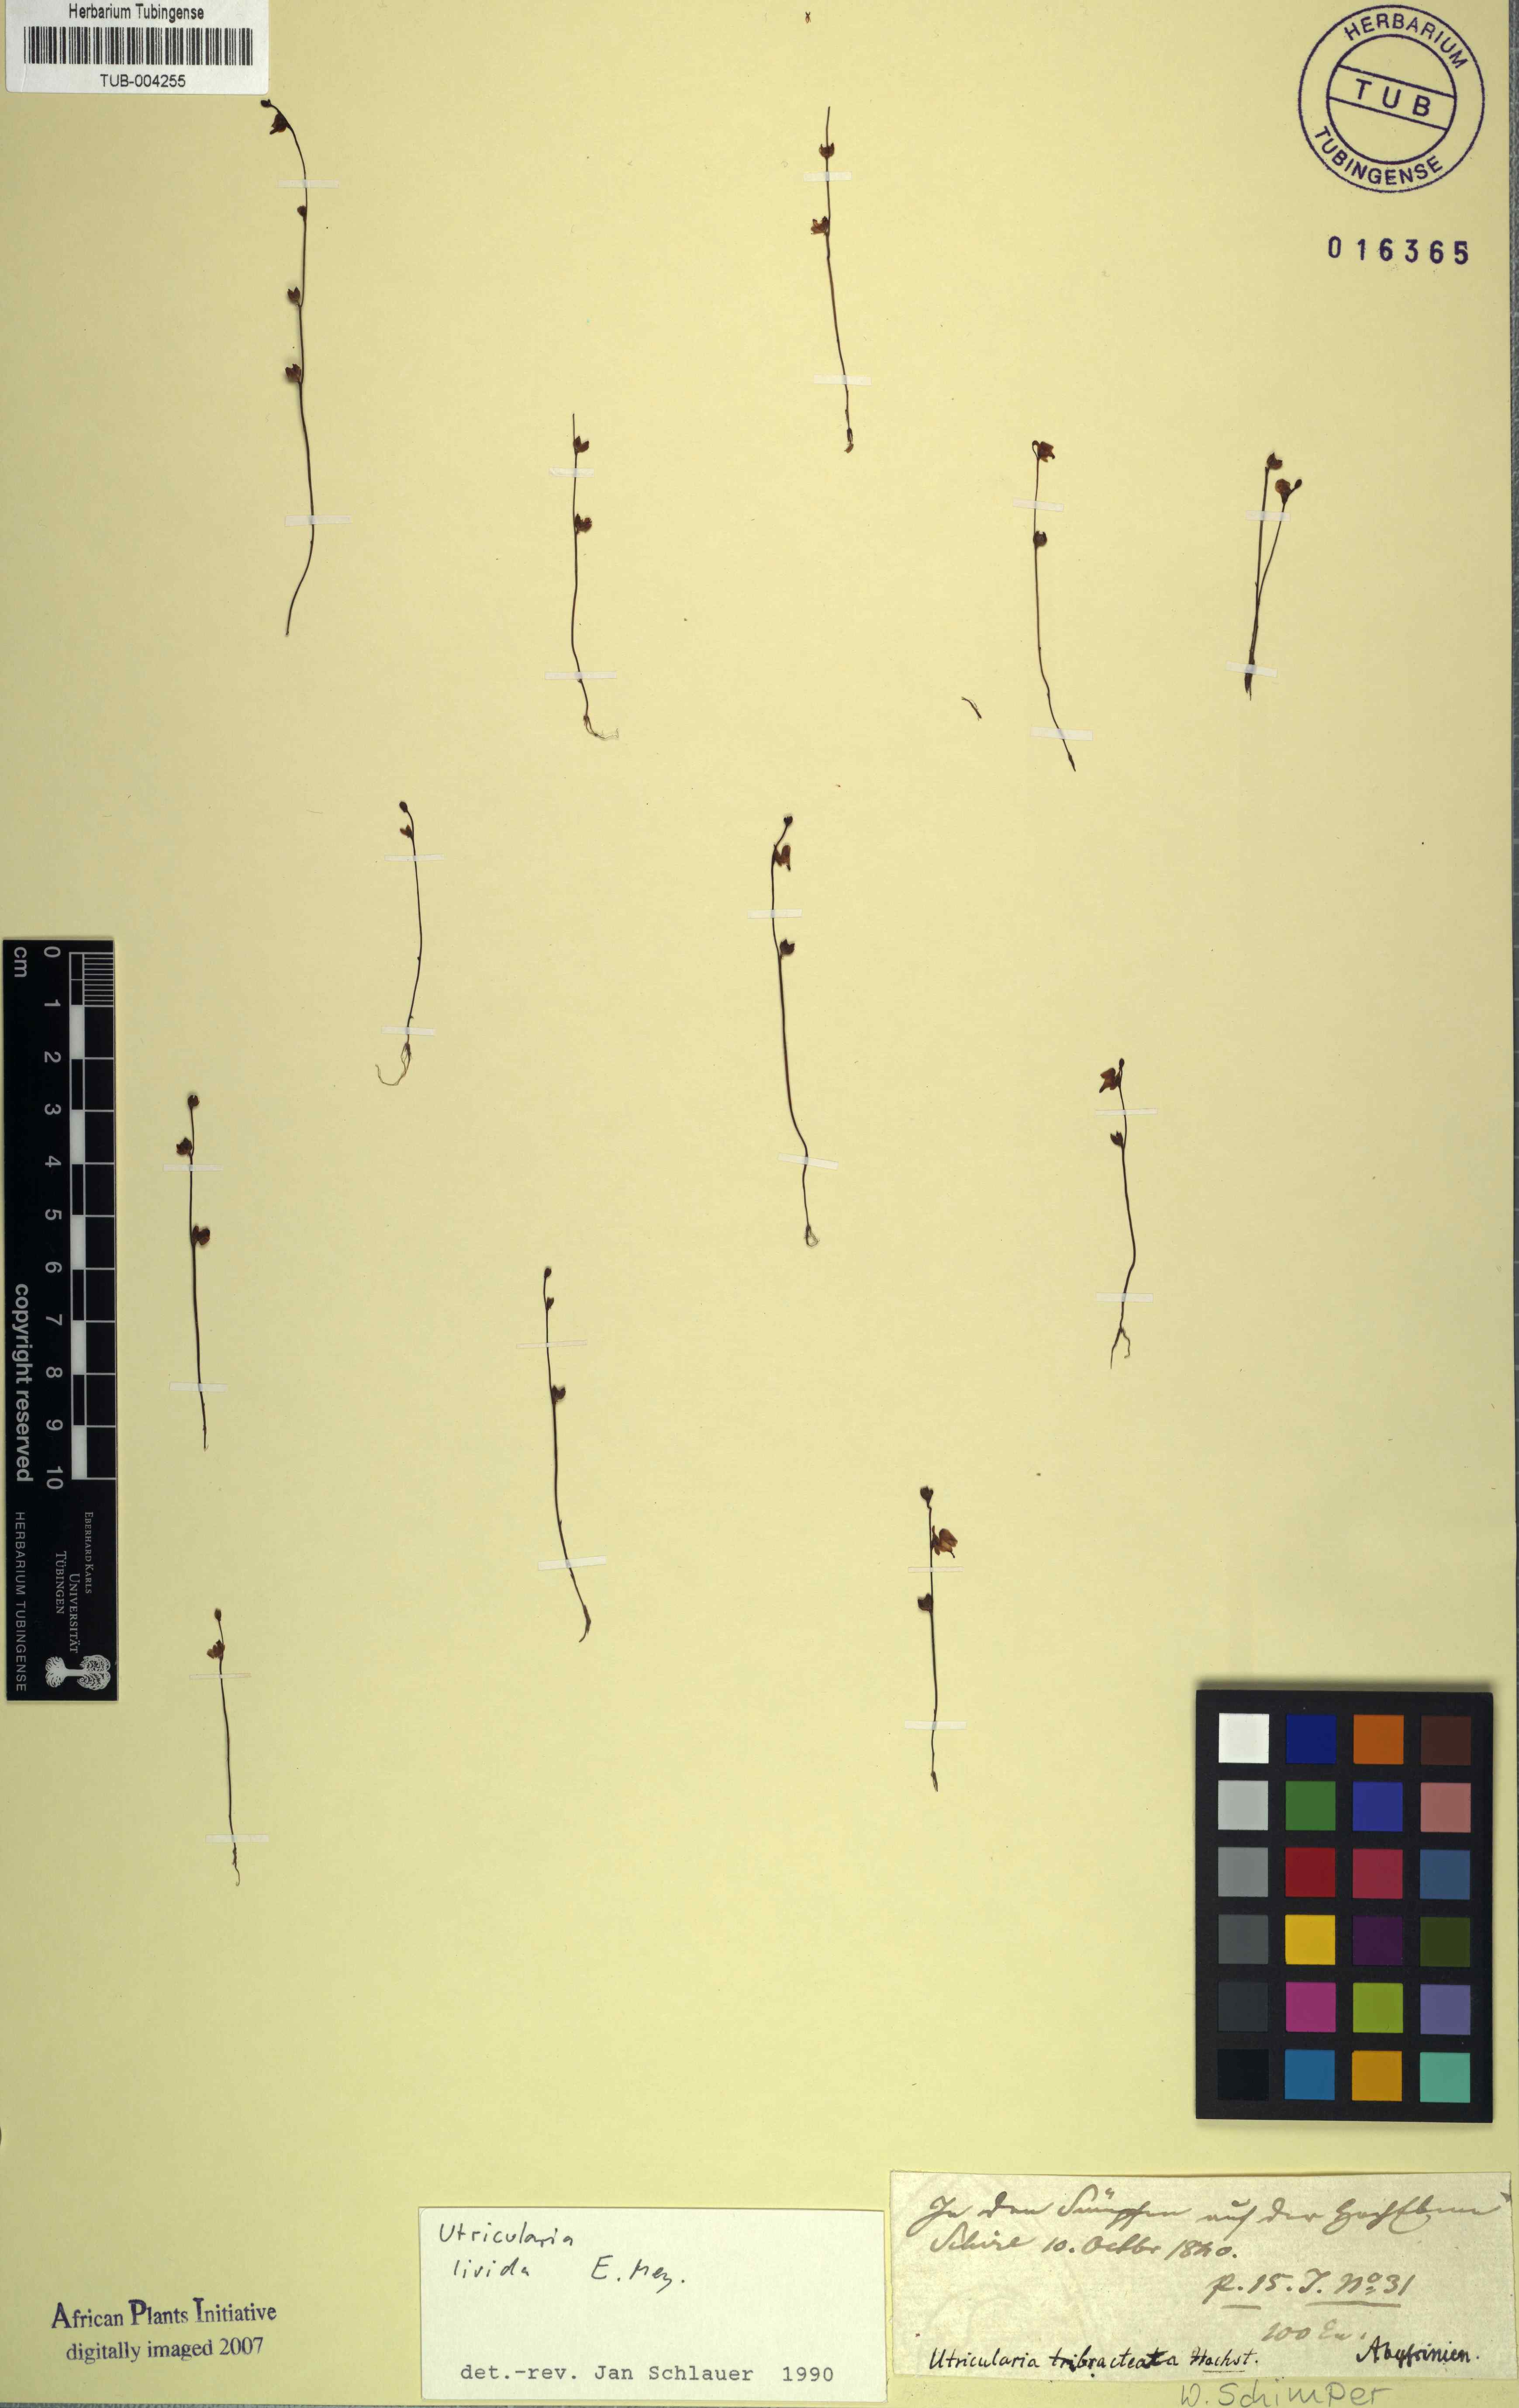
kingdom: Plantae
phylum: Tracheophyta
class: Magnoliopsida
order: Lamiales
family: Lentibulariaceae
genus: Utricularia
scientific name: Utricularia livida
